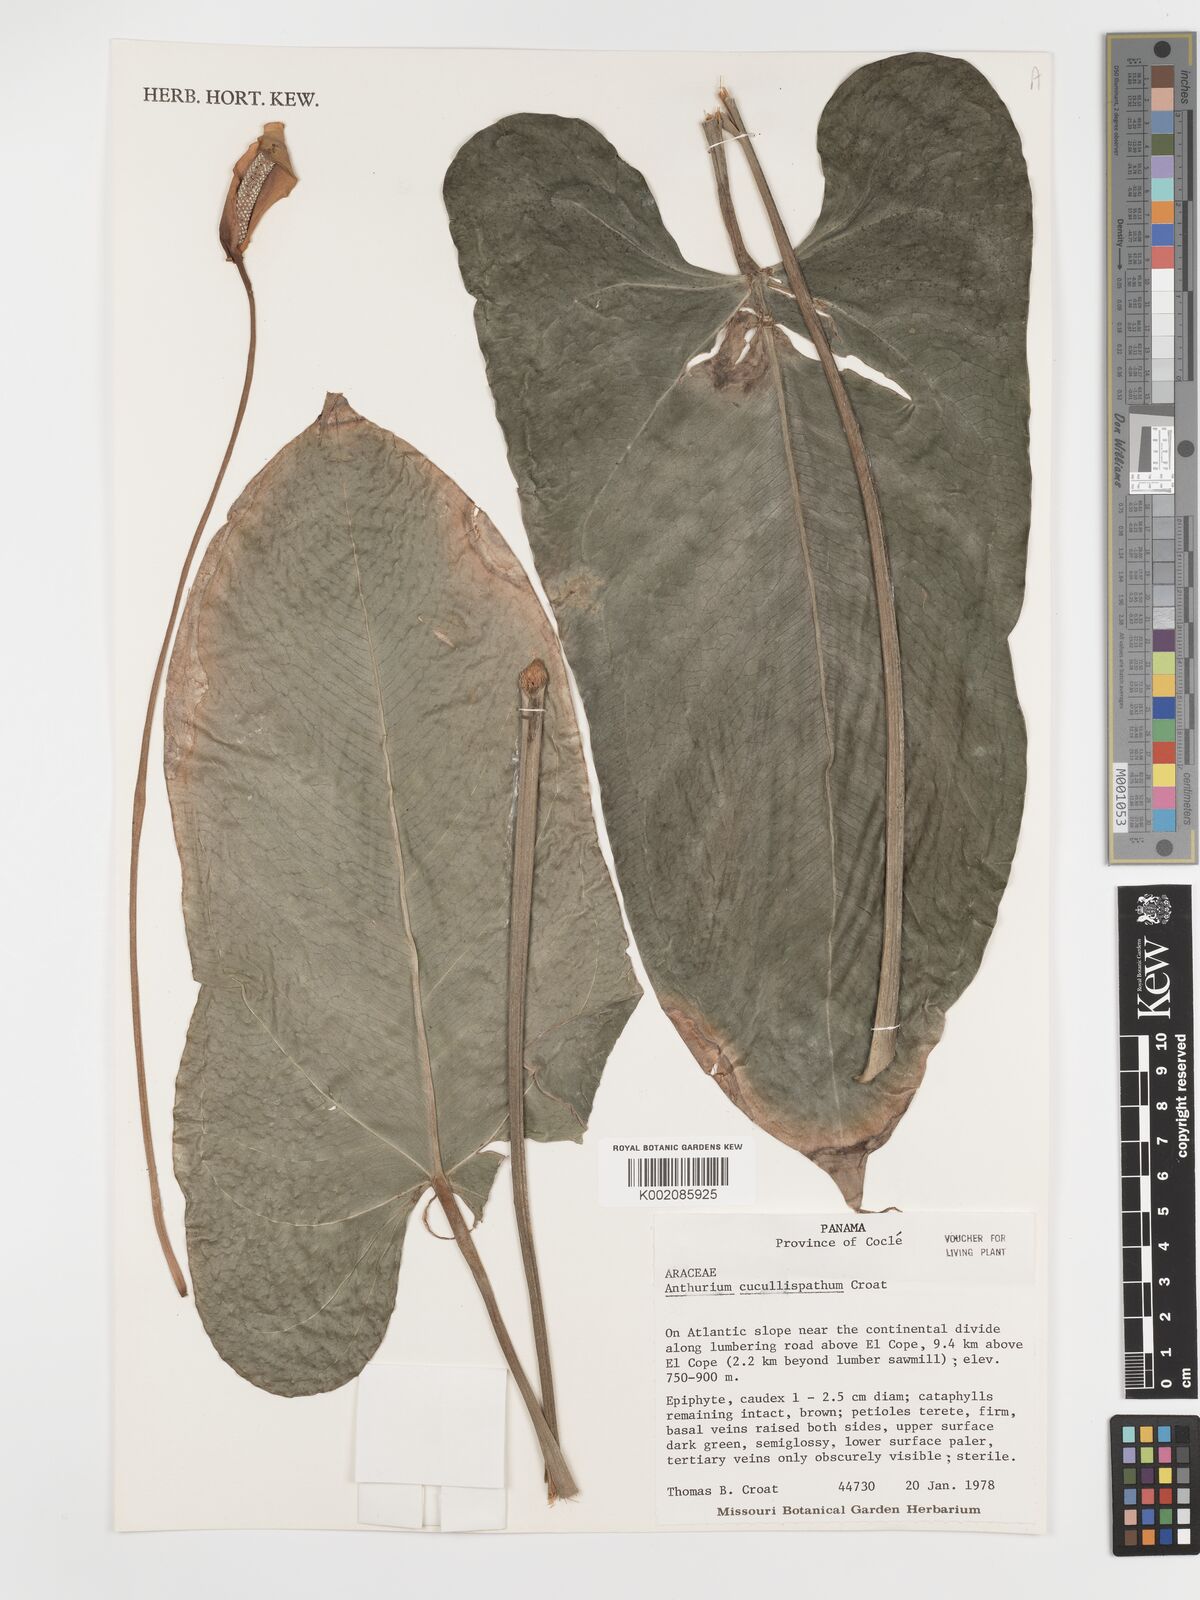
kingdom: Plantae
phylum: Tracheophyta
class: Liliopsida
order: Alismatales
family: Araceae
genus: Anthurium
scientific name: Anthurium cucullispathum
